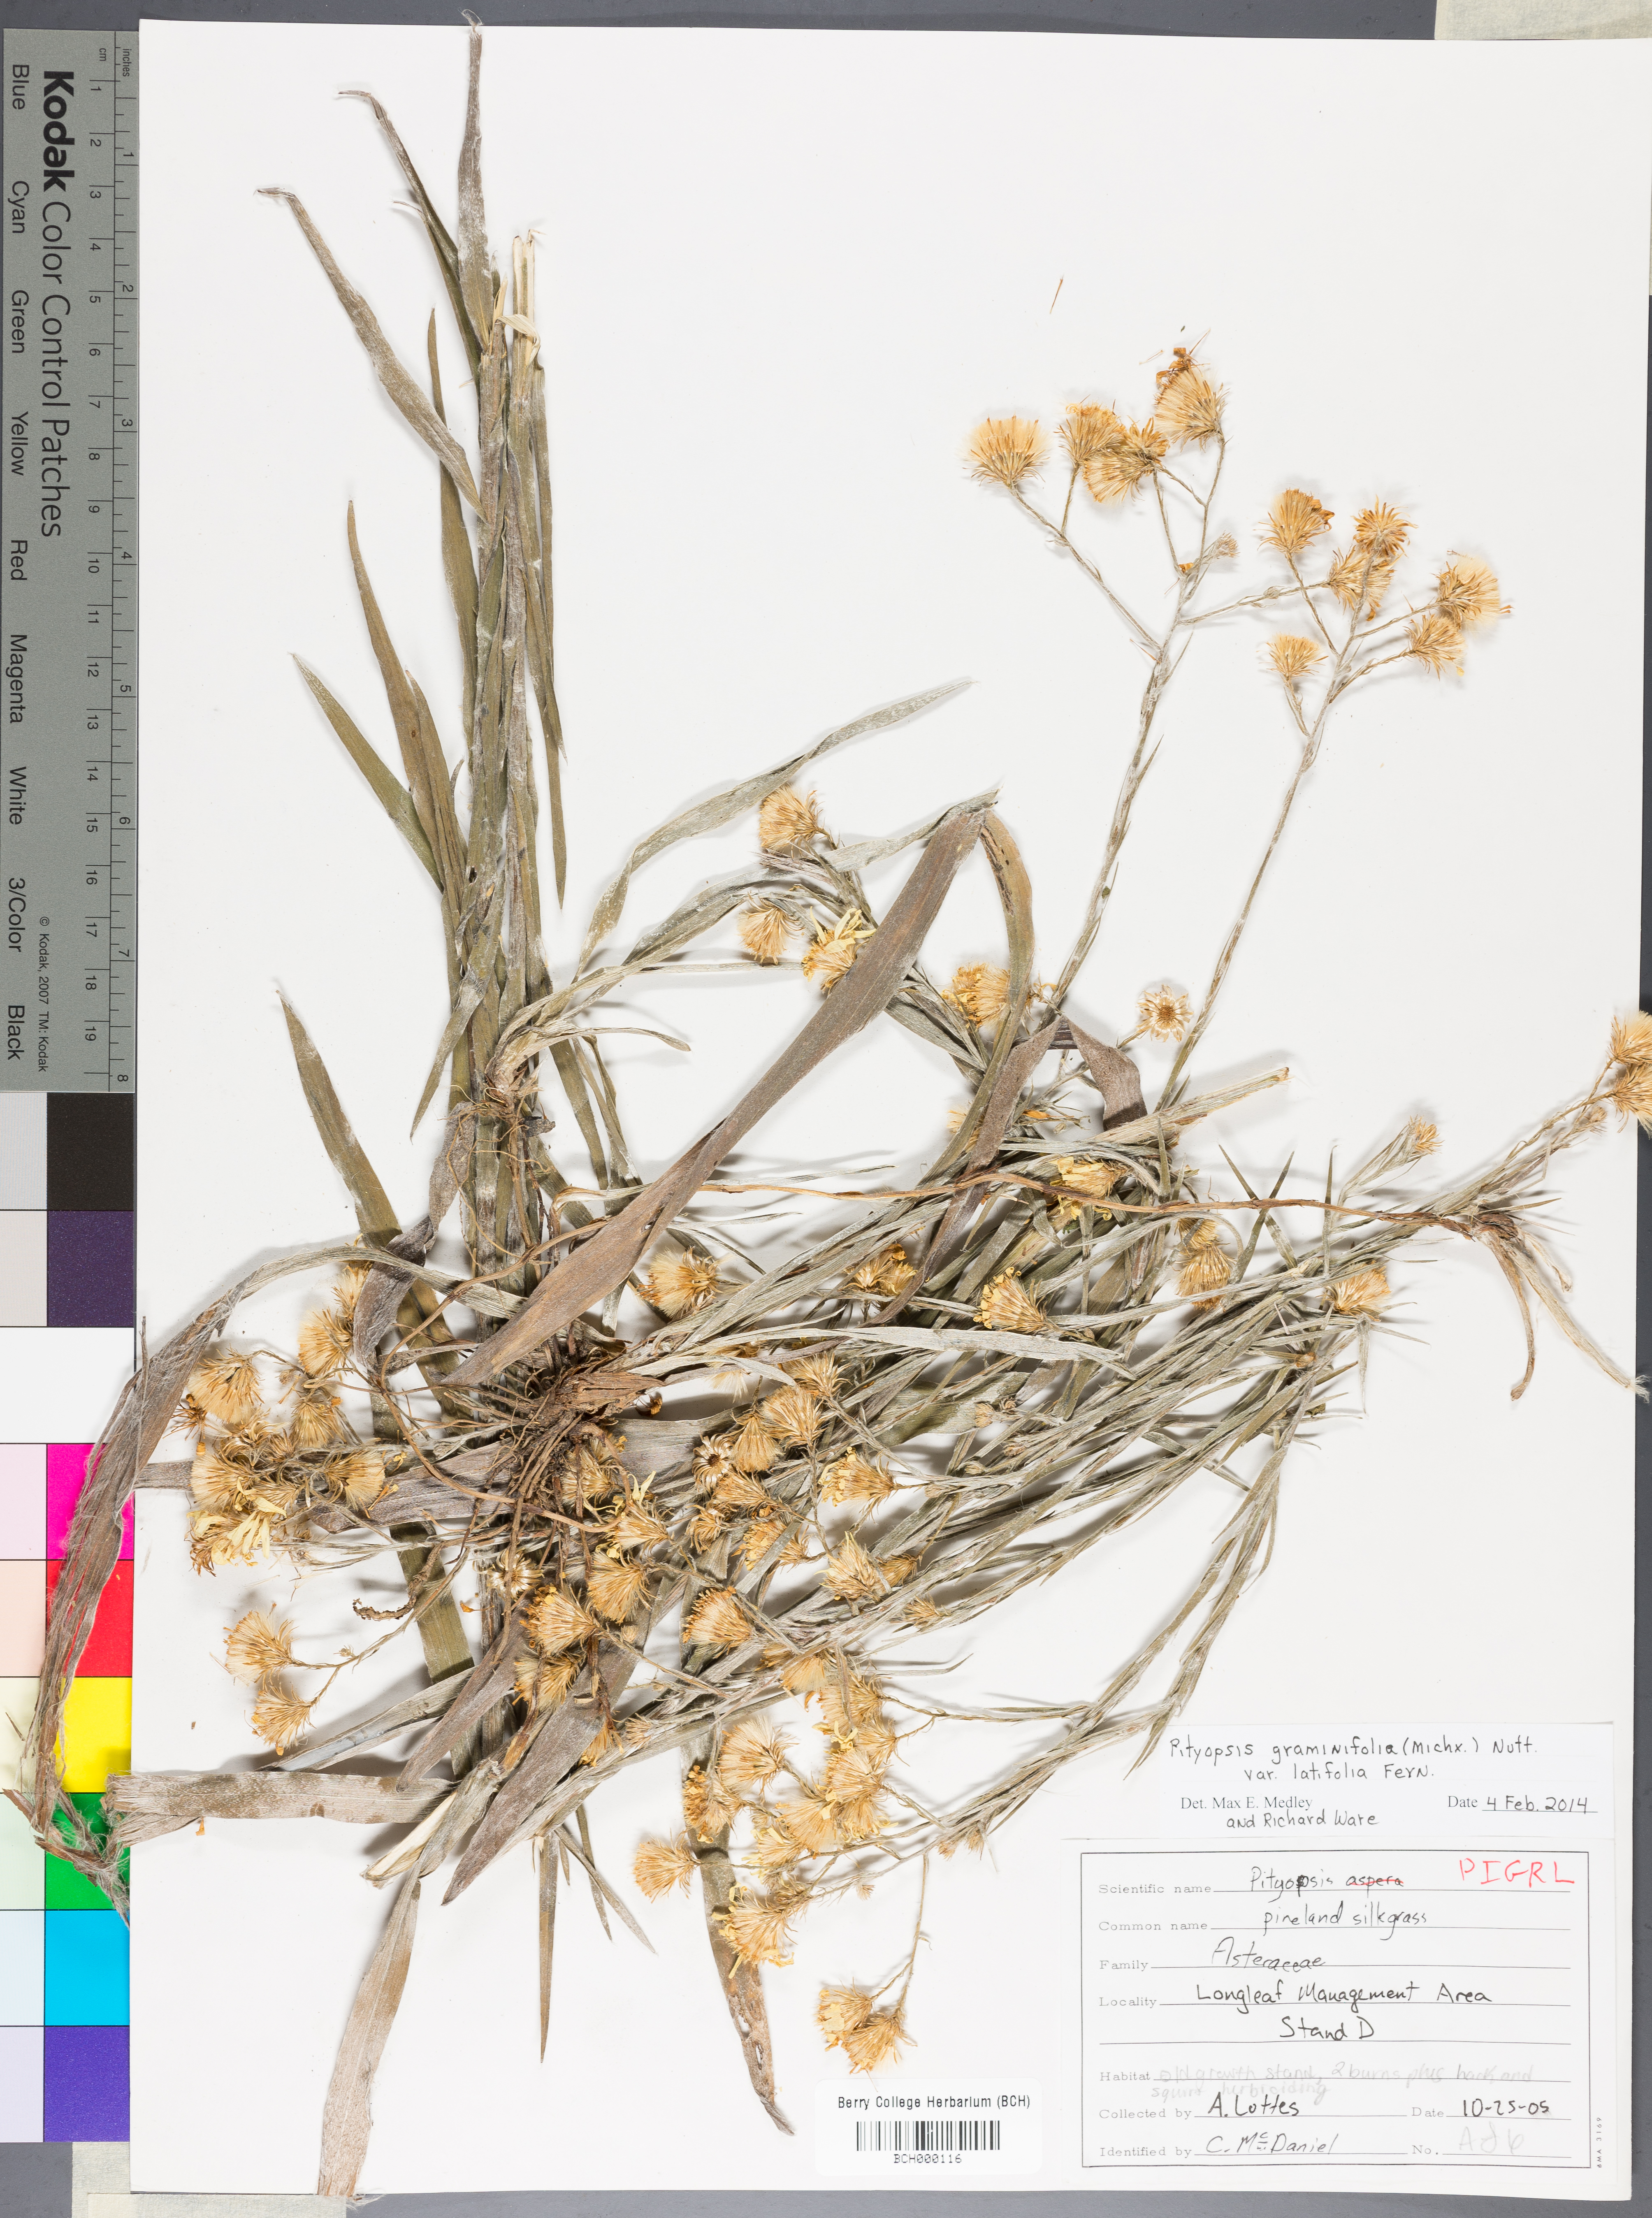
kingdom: Plantae
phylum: Tracheophyta
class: Magnoliopsida
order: Asterales
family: Asteraceae
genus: Pityopsis
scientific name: Pityopsis latifolia
